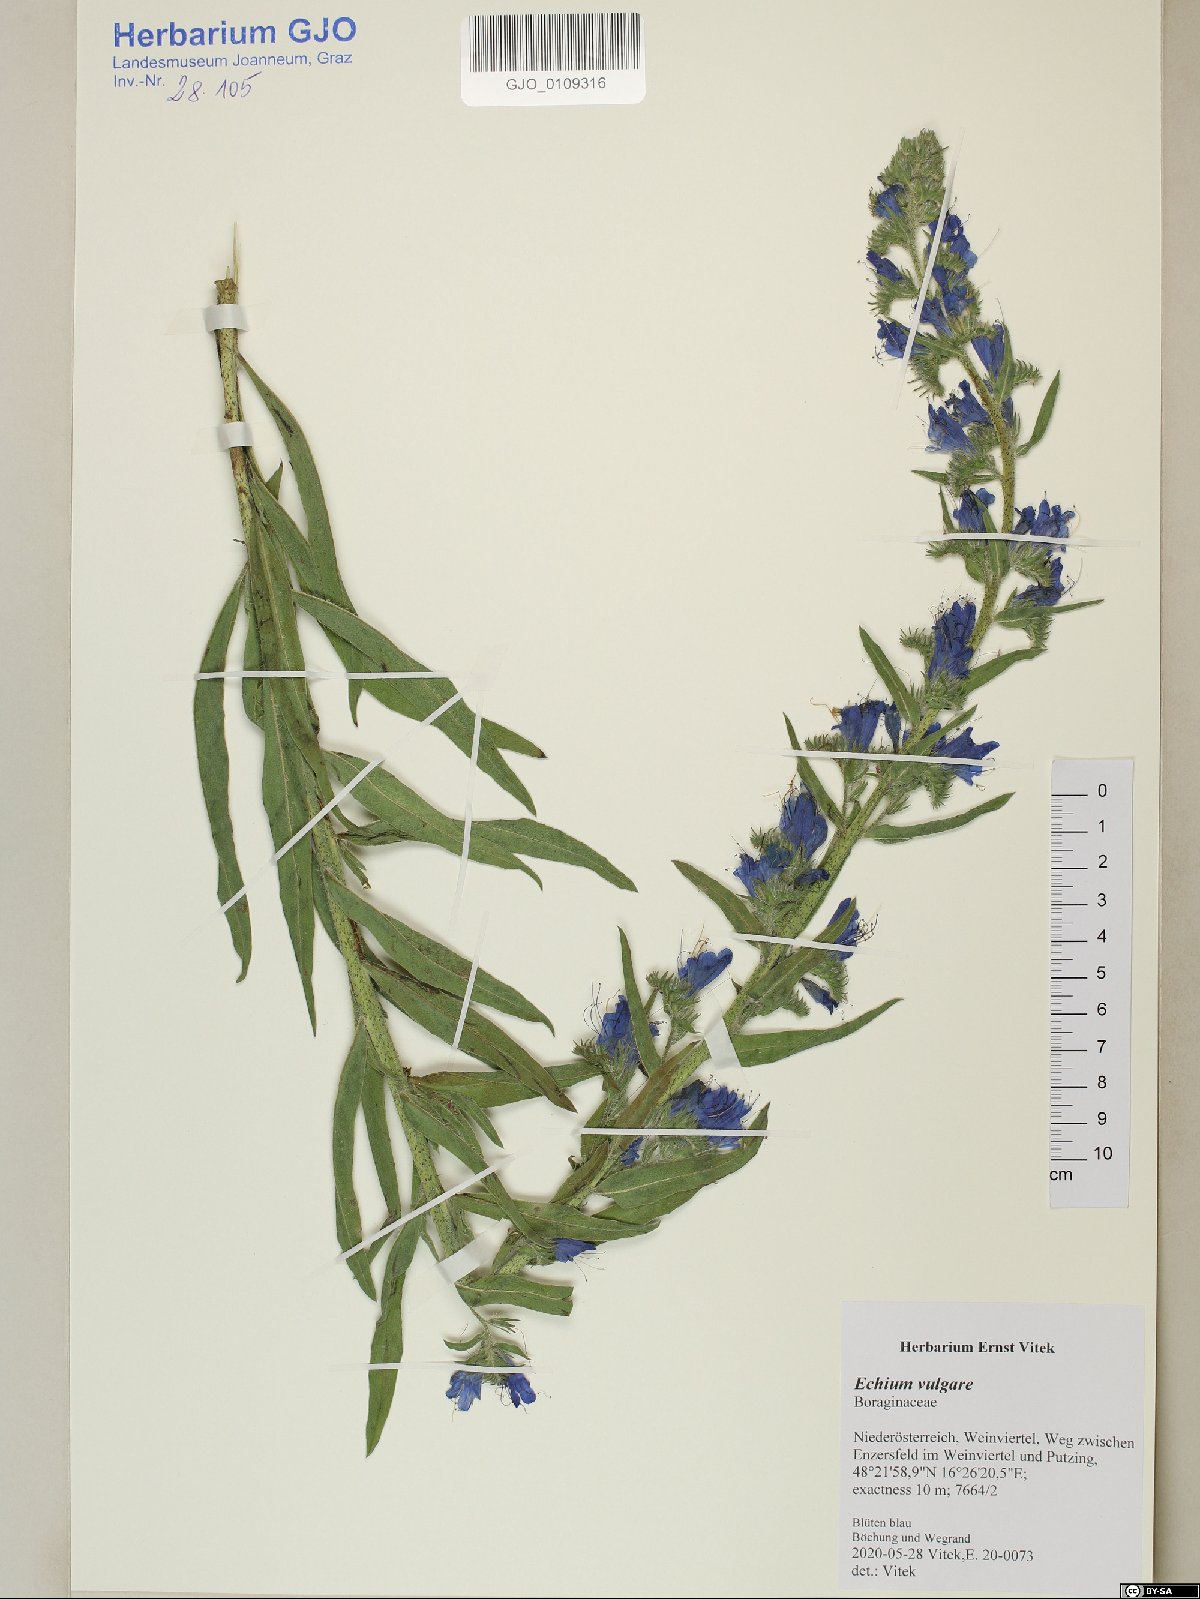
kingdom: Plantae
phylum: Tracheophyta
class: Magnoliopsida
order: Boraginales
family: Boraginaceae
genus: Echium
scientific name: Echium vulgare
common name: Common viper's bugloss
